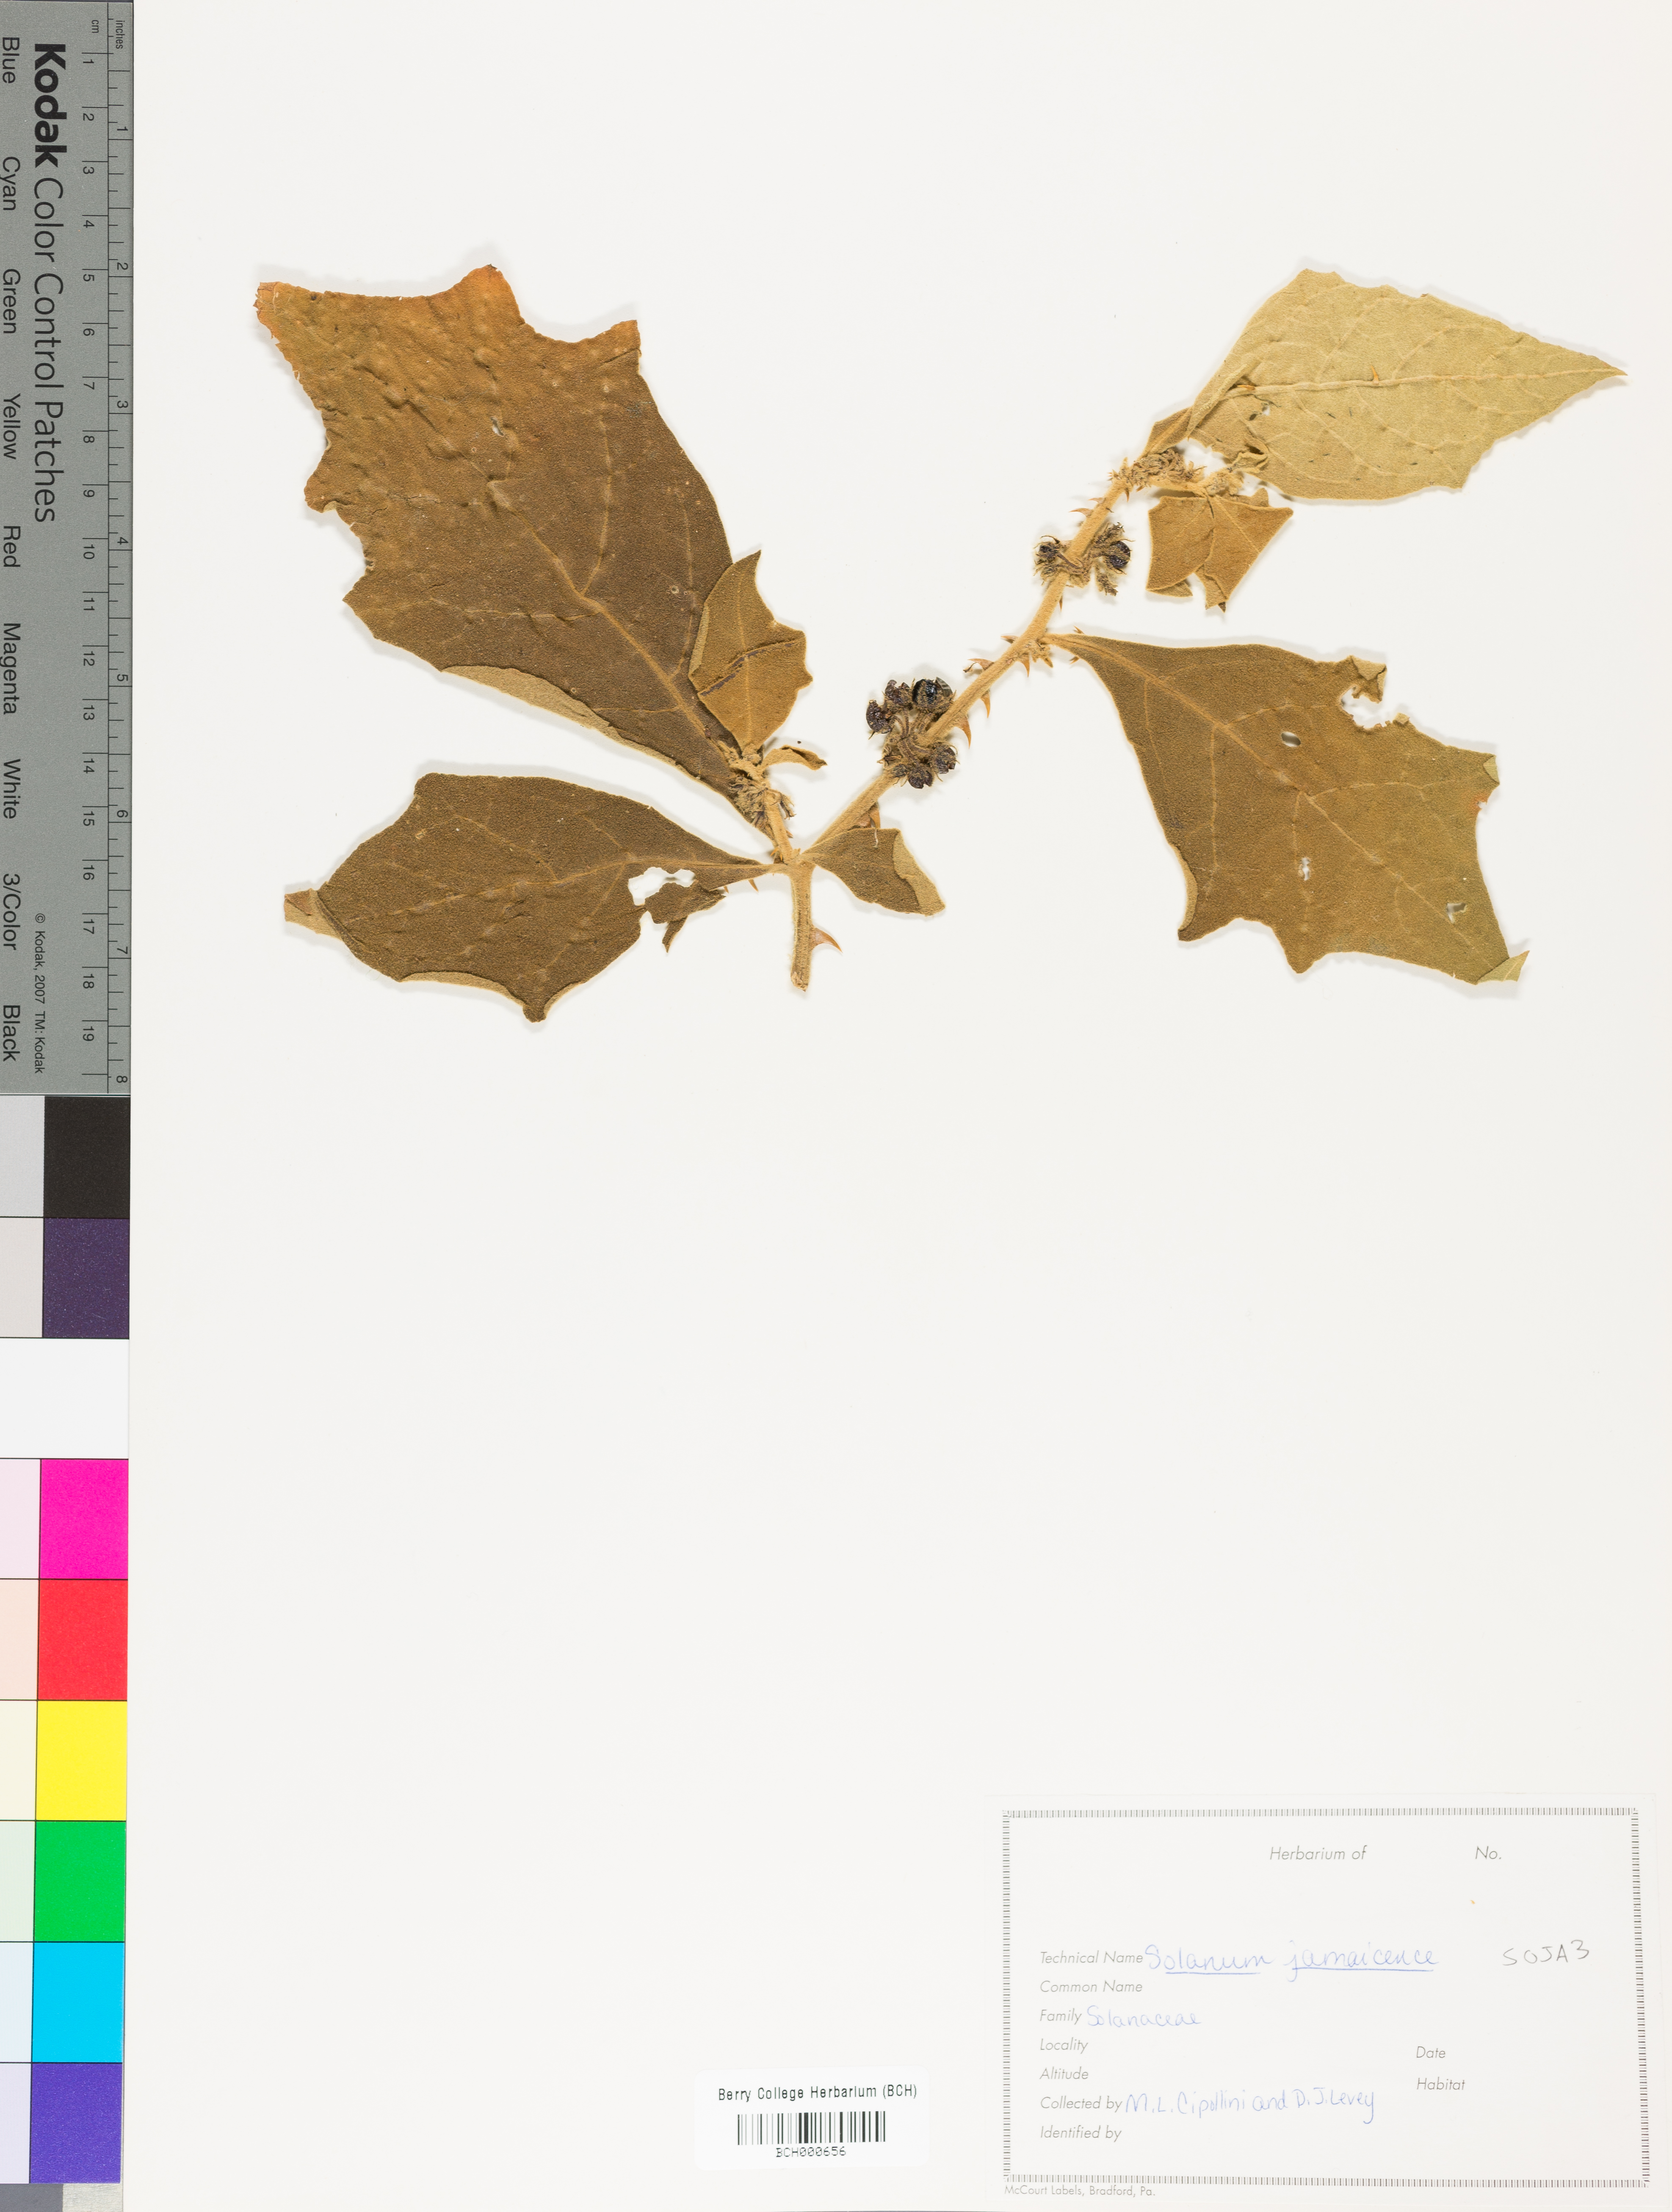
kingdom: Plantae
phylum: Tracheophyta
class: Magnoliopsida
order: Solanales
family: Solanaceae
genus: Solanum
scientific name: Solanum jamaicense
